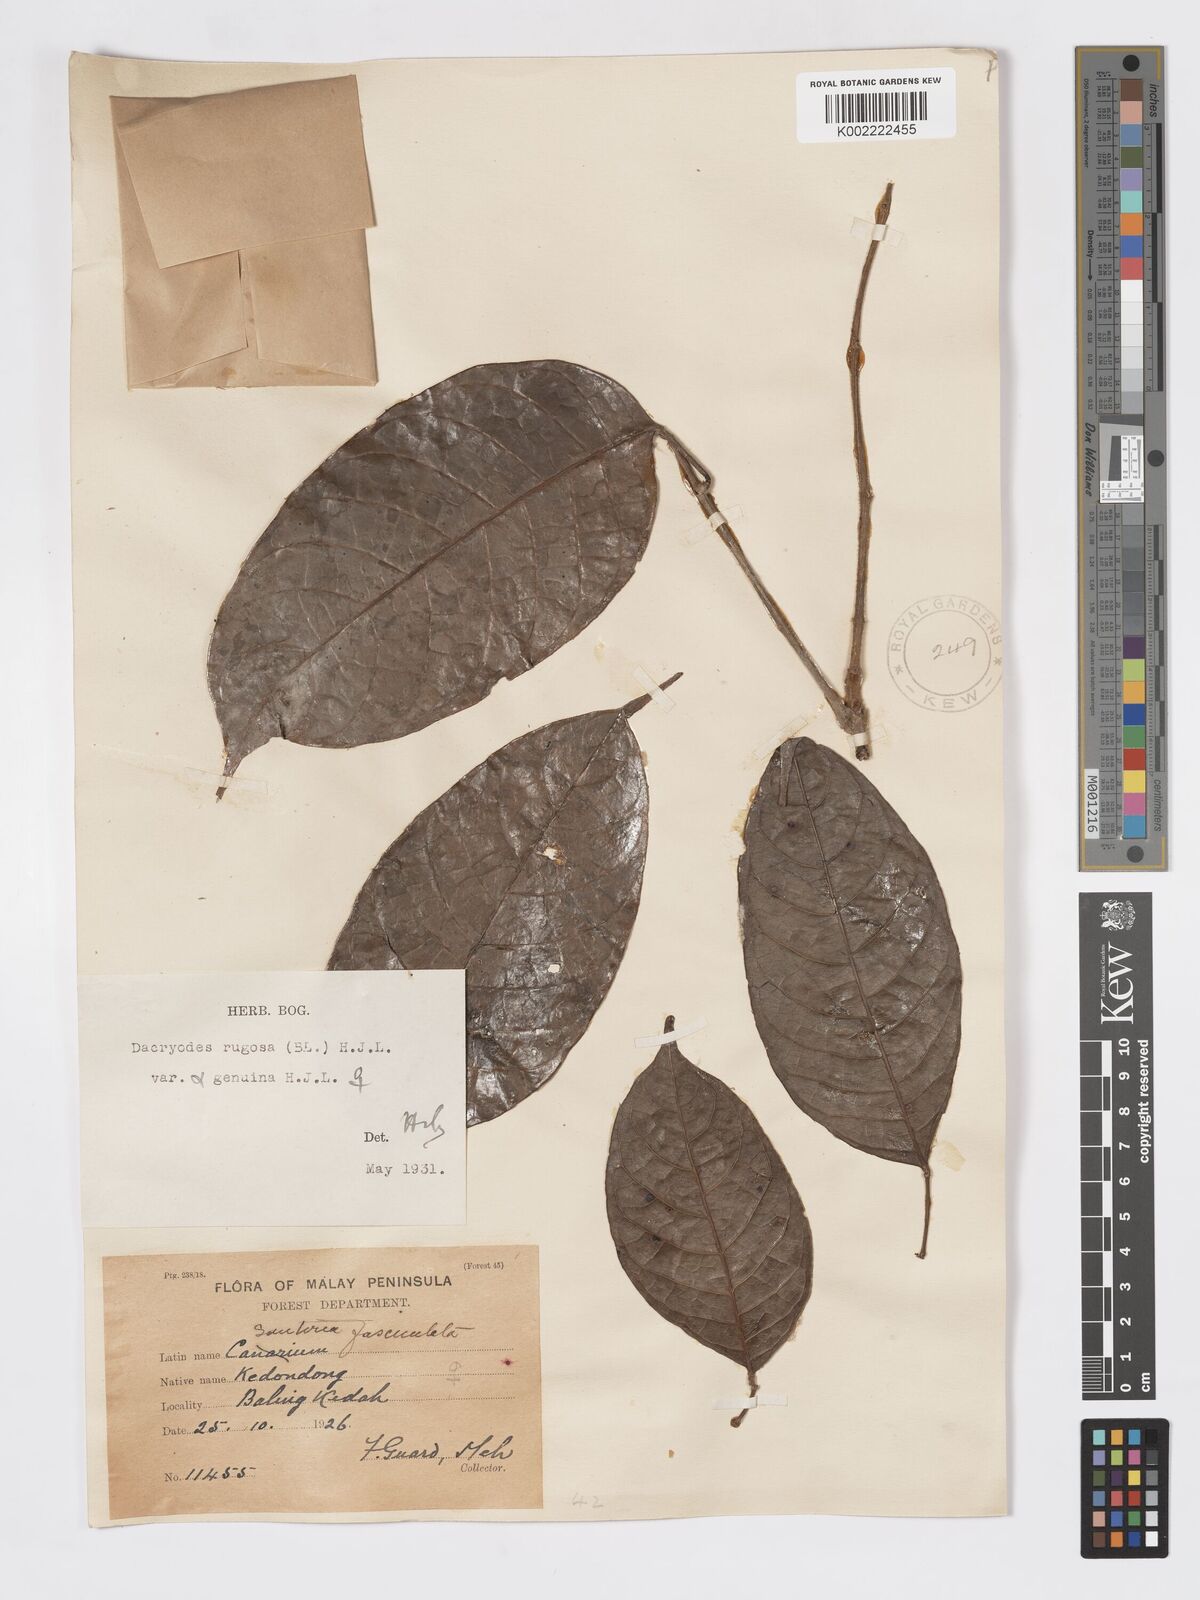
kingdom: Plantae
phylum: Tracheophyta
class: Magnoliopsida
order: Sapindales
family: Burseraceae
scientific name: Burseraceae
